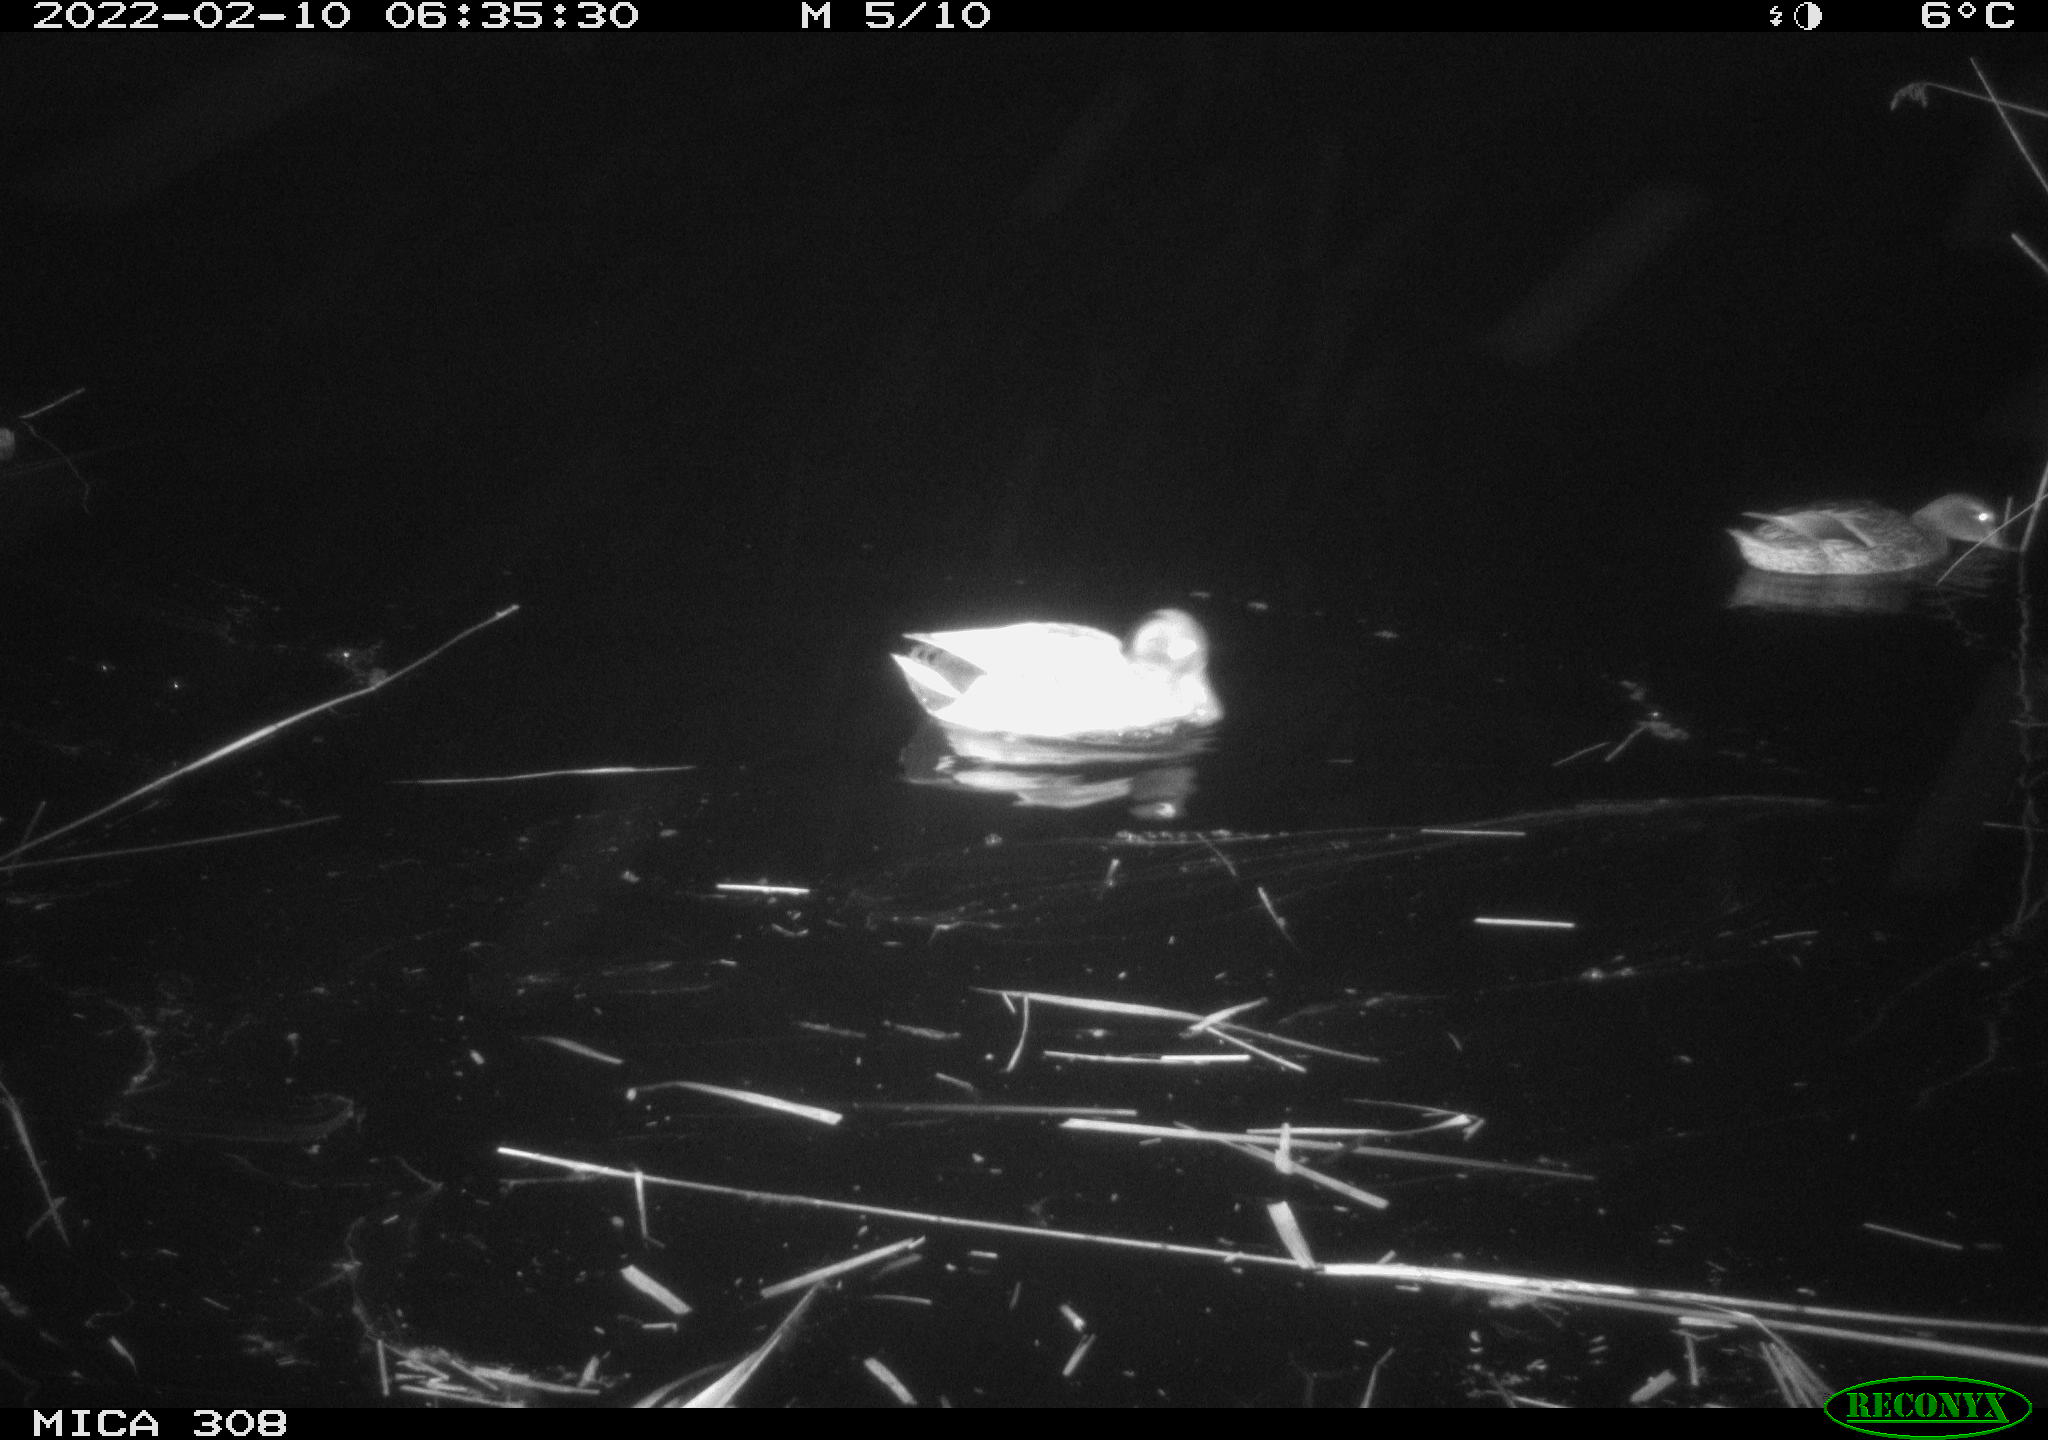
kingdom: Animalia
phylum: Chordata
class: Aves
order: Gruiformes
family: Rallidae
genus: Gallinula
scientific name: Gallinula chloropus
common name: Common moorhen
